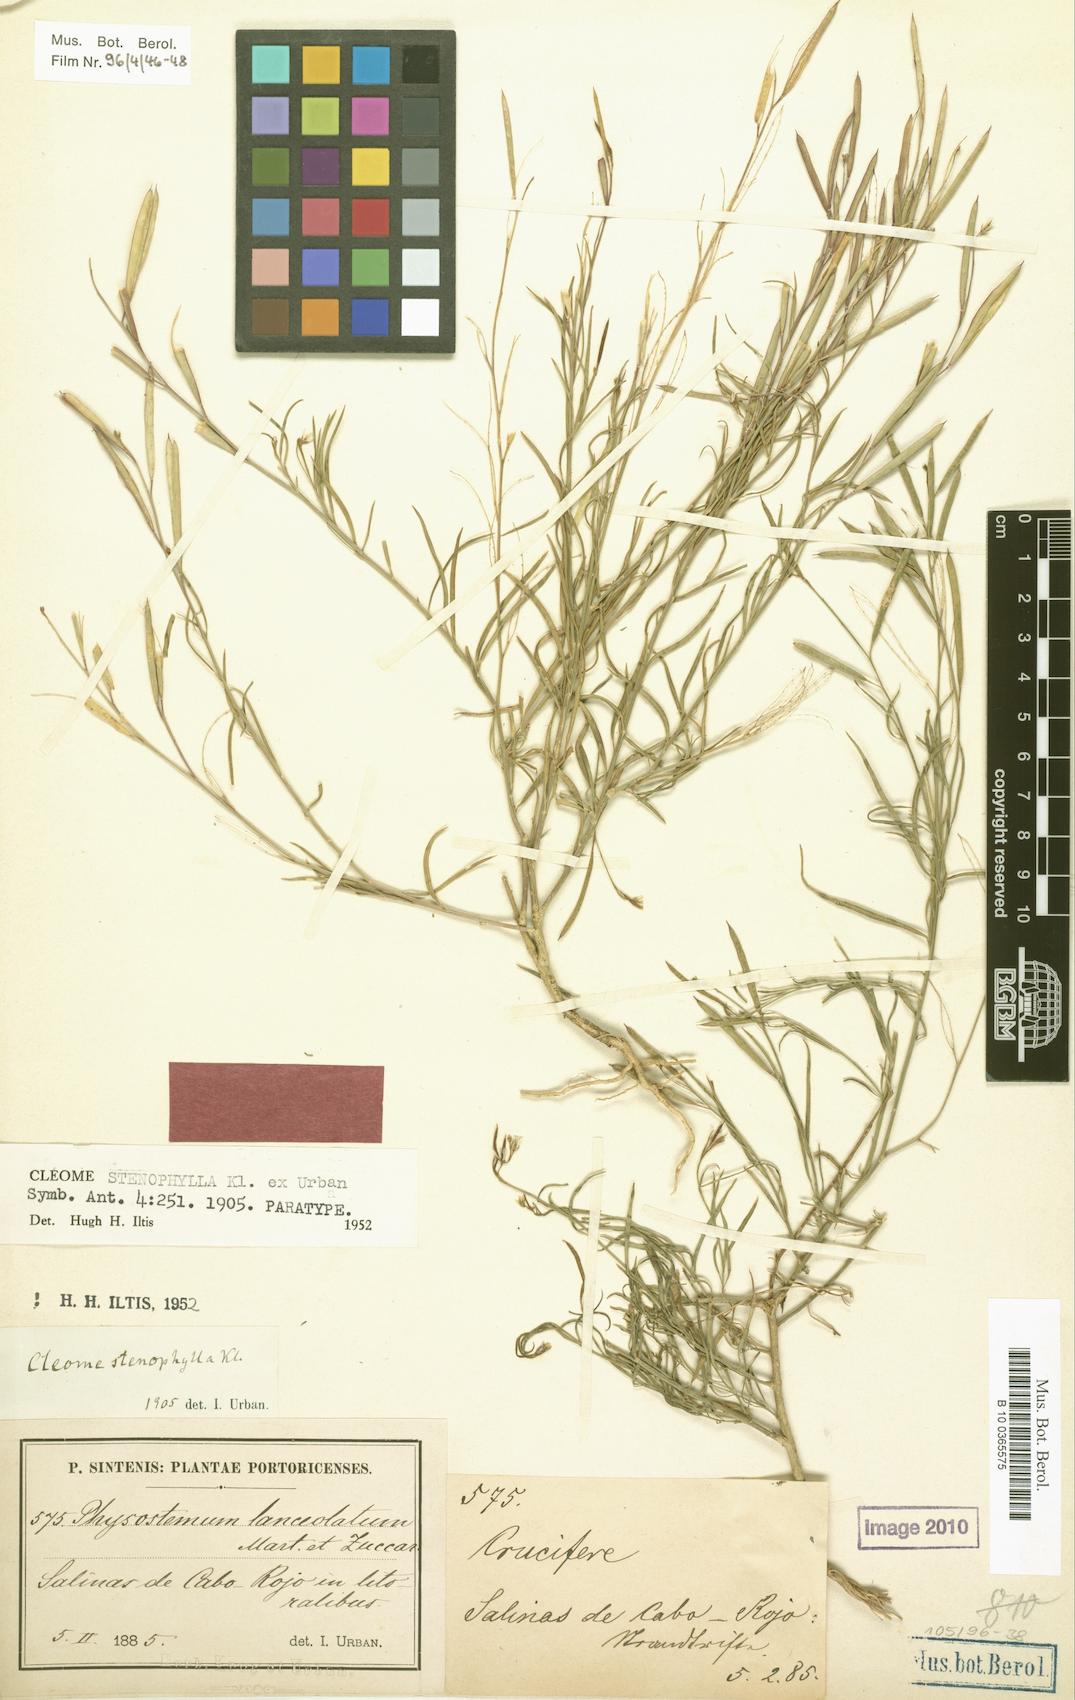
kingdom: Plantae
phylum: Tracheophyta
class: Magnoliopsida
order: Brassicales
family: Cleomaceae
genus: Physostemon
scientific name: Physostemon stenophyllus
